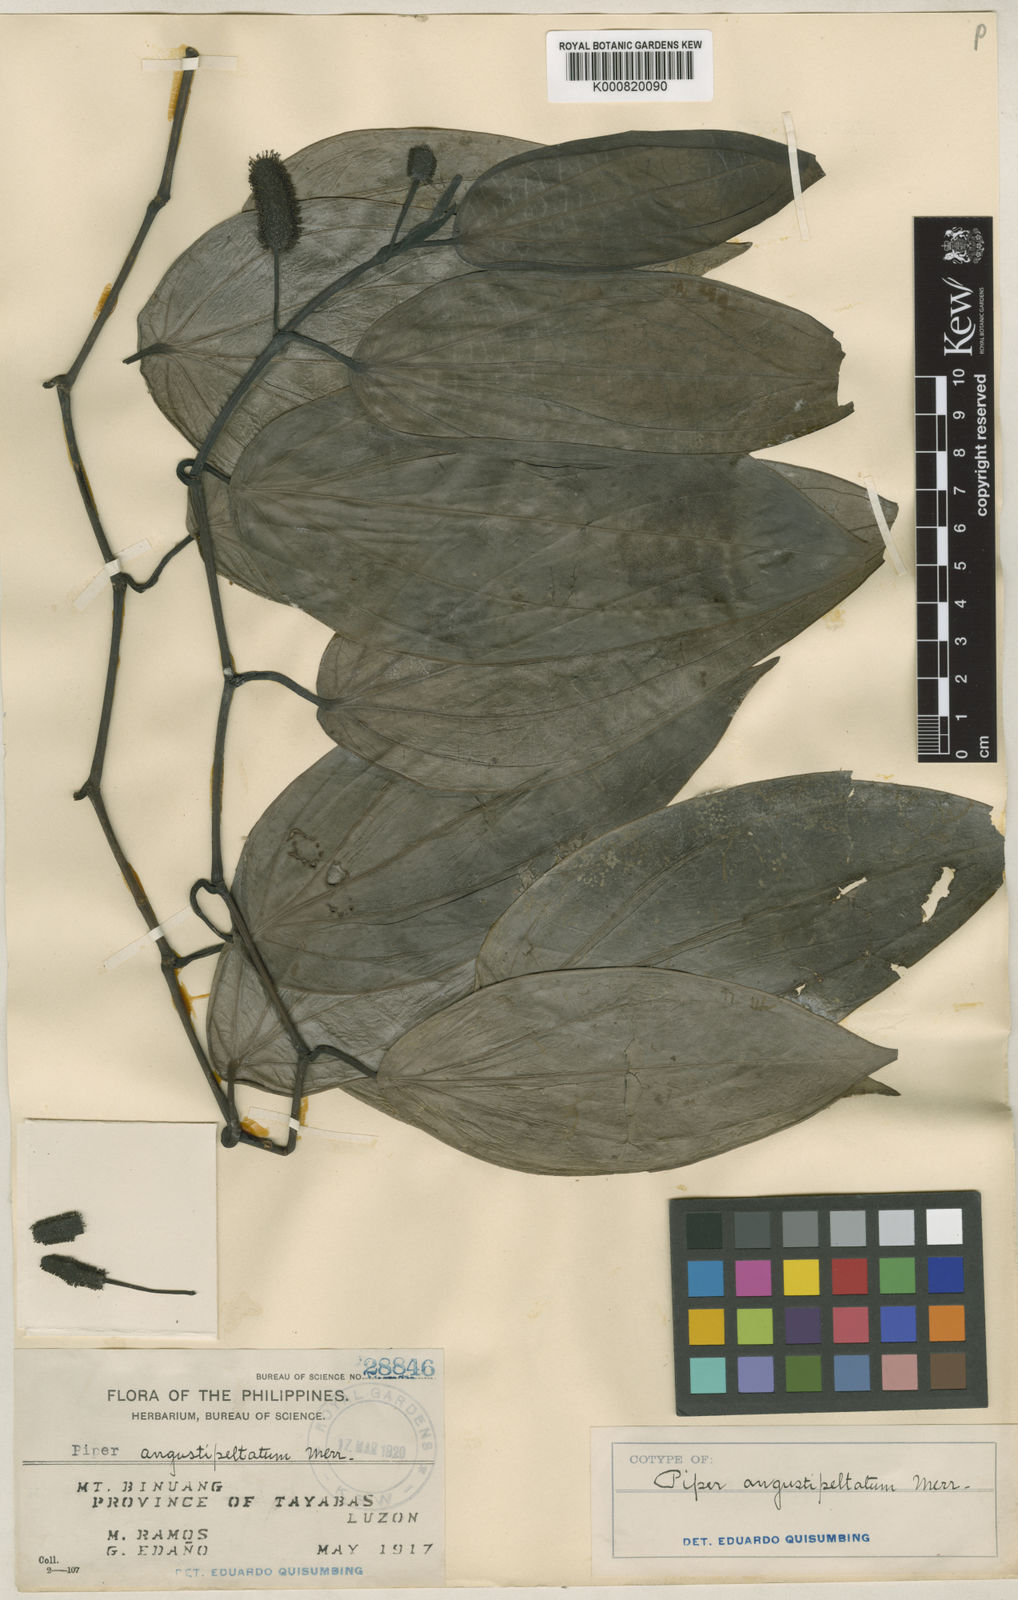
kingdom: Plantae
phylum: Tracheophyta
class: Magnoliopsida
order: Piperales
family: Piperaceae
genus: Piper
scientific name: Piper angustipeltatum
